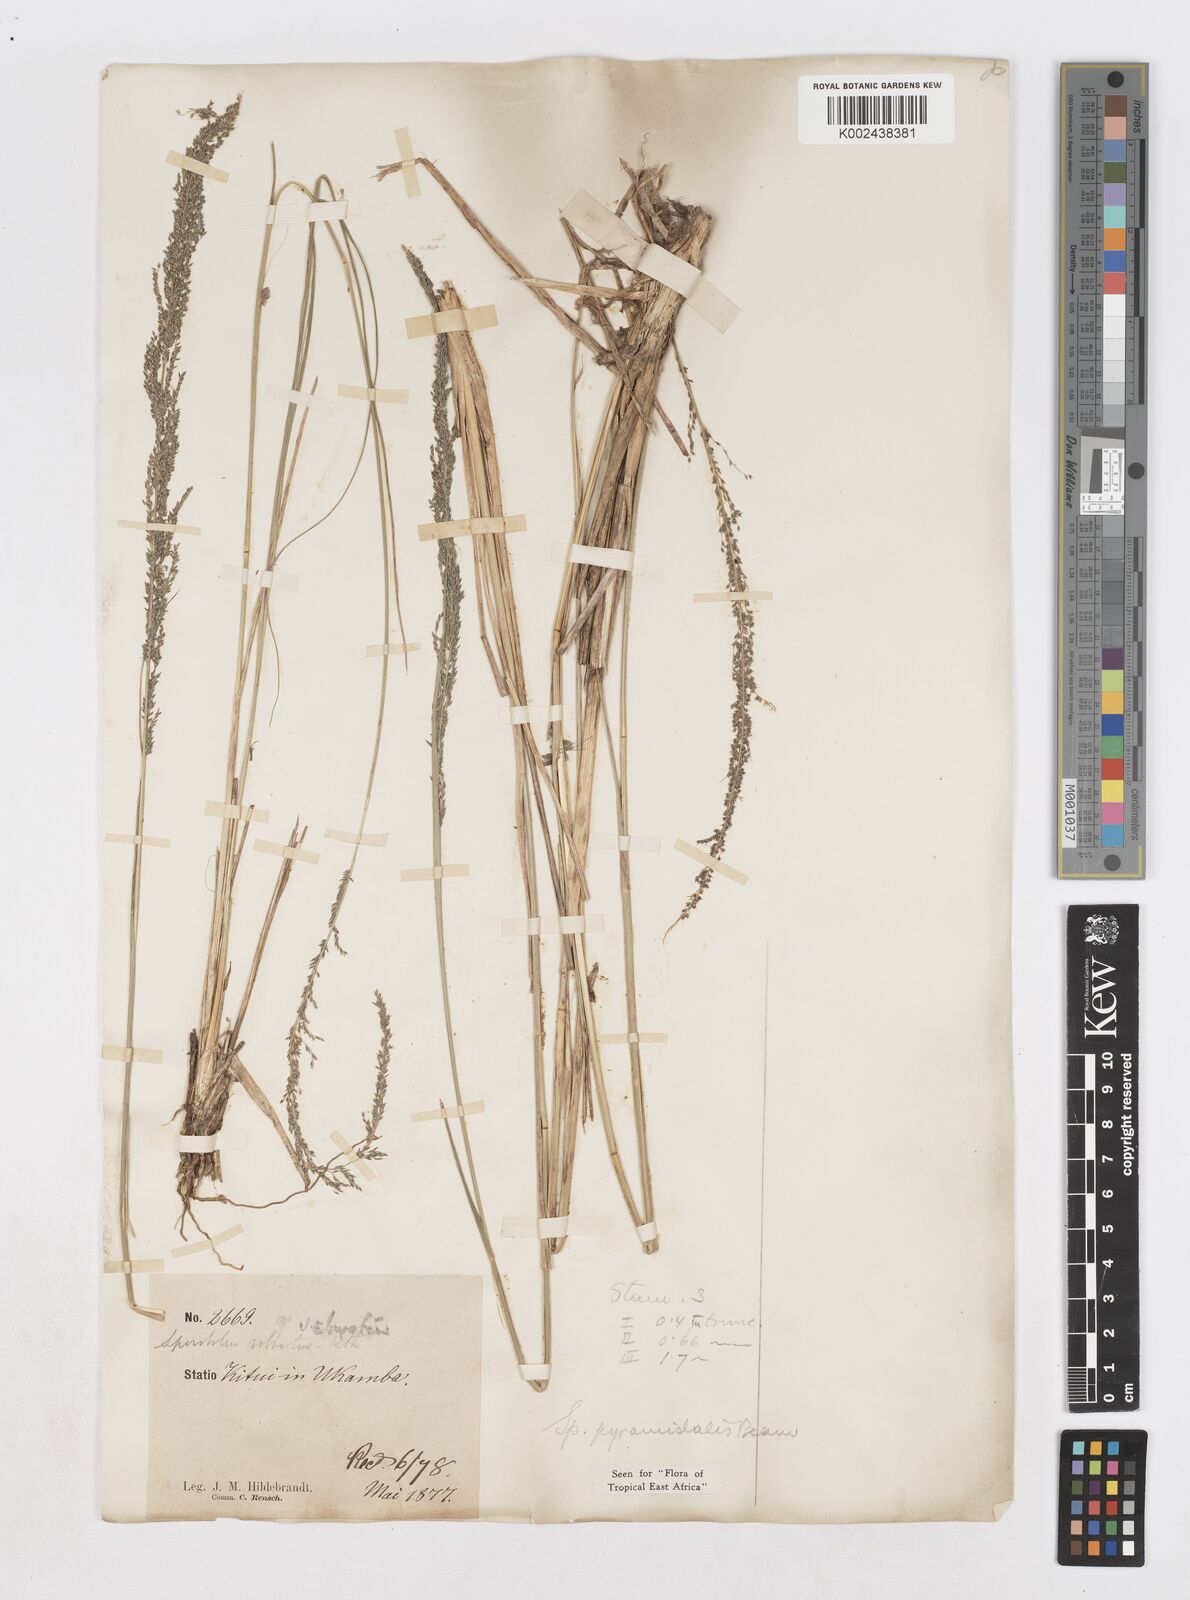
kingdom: Plantae
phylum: Tracheophyta
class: Liliopsida
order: Poales
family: Poaceae
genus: Sporobolus
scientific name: Sporobolus pyramidalis
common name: West indian dropseed
